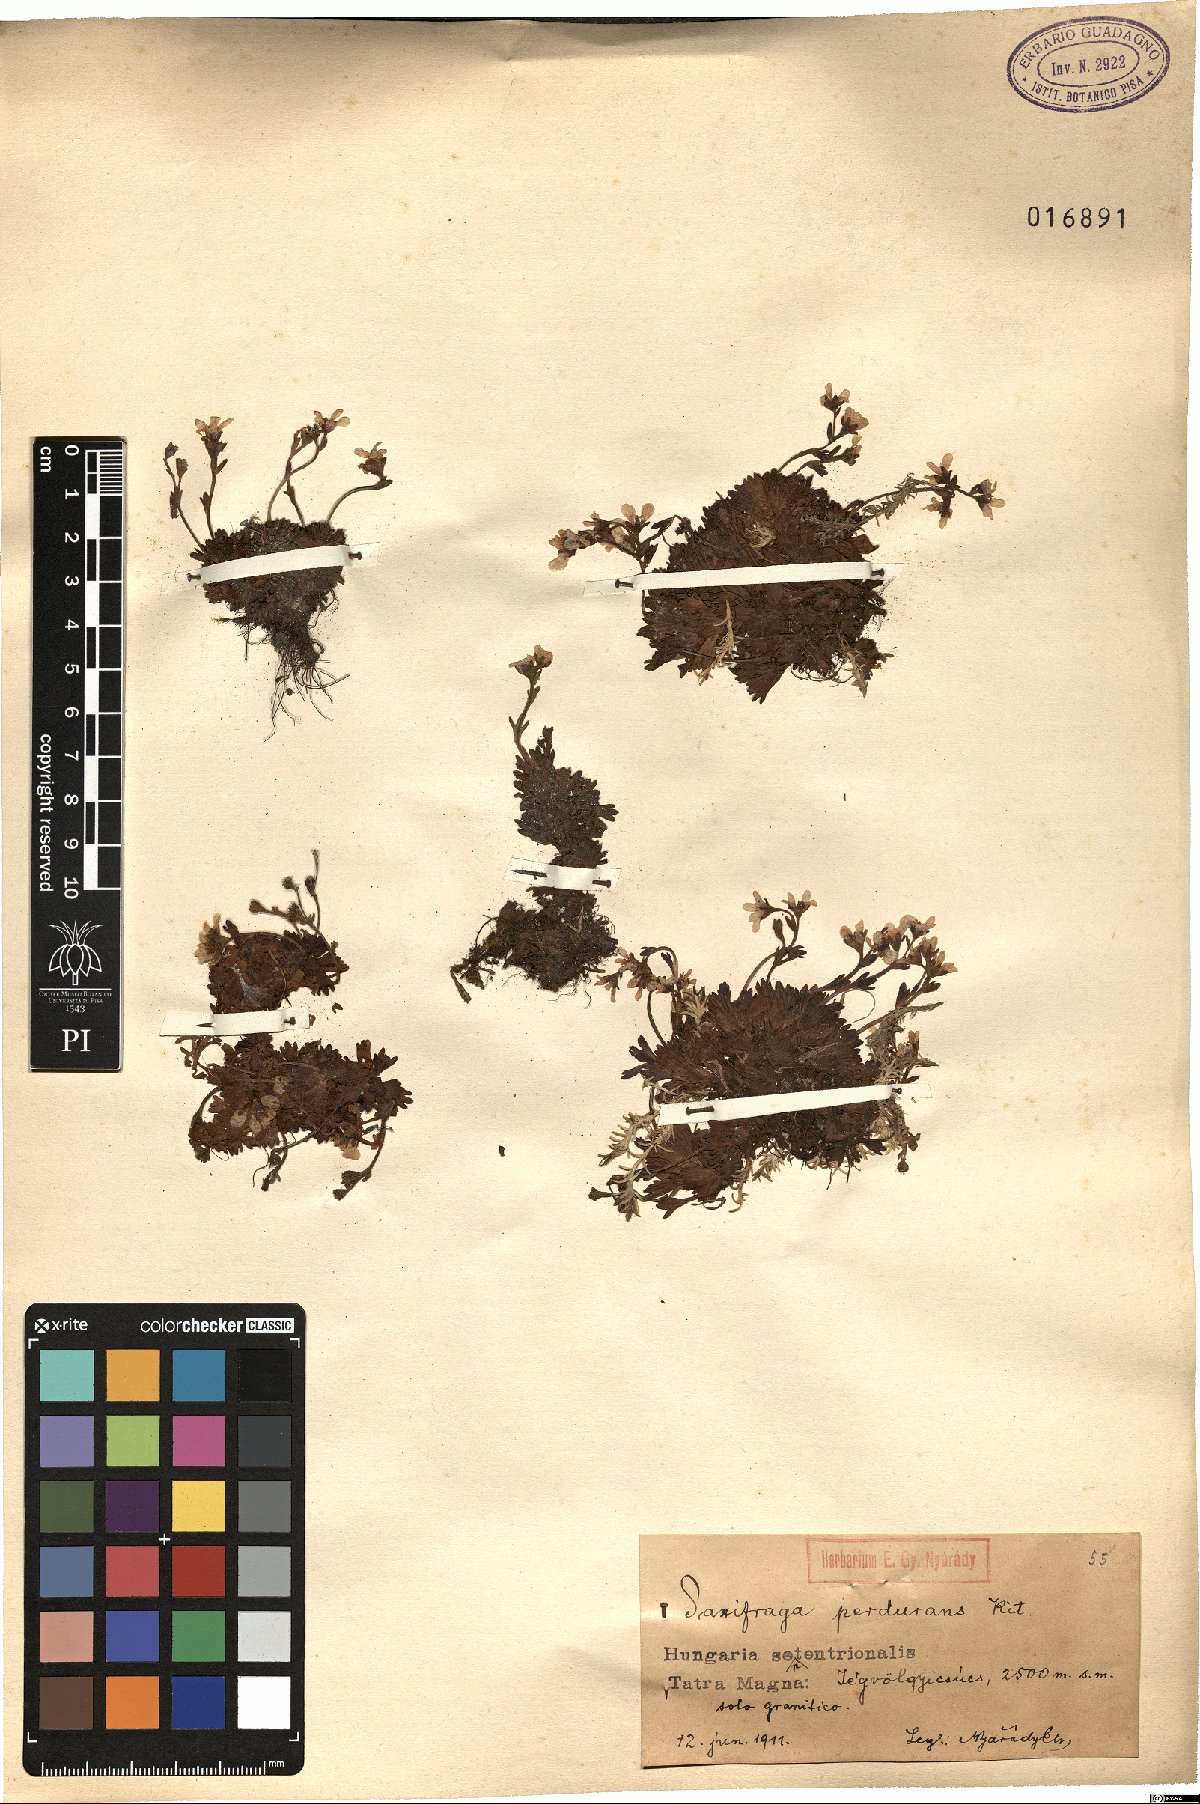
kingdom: Plantae
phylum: Tracheophyta
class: Magnoliopsida
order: Saxifragales
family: Saxifragaceae
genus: Saxifraga
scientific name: Saxifraga wahlenbergii
